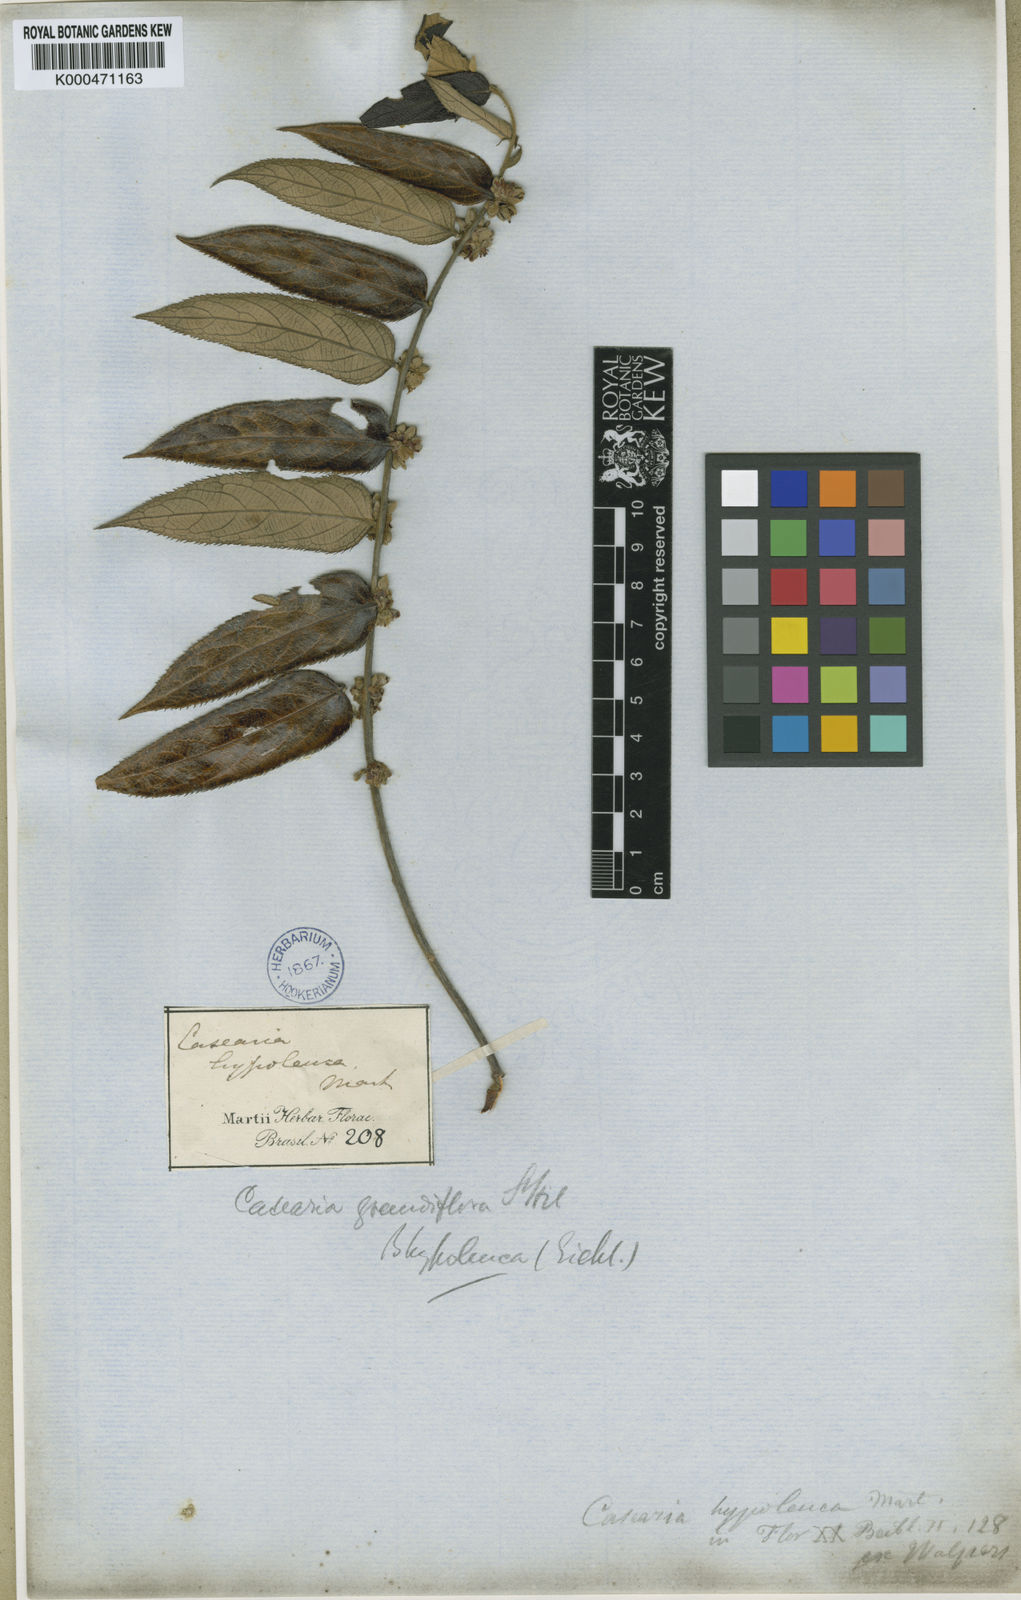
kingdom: Plantae
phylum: Tracheophyta
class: Magnoliopsida
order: Malpighiales
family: Salicaceae
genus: Casearia
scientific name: Casearia grandiflora
